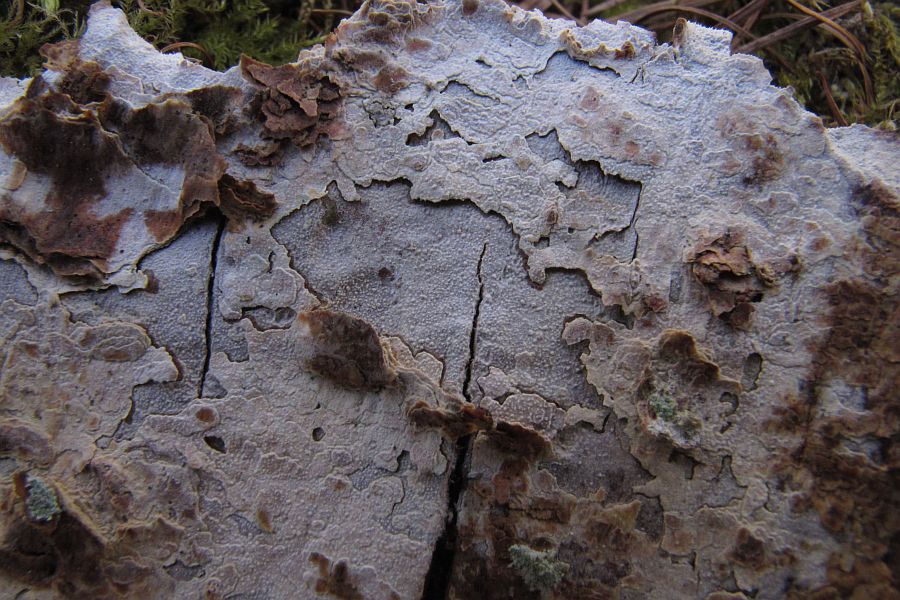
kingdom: Fungi
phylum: Basidiomycota
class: Agaricomycetes
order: Hymenochaetales
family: Rickenellaceae
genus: Resinicium
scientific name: Resinicium bicolor
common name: almindelig vokstand
